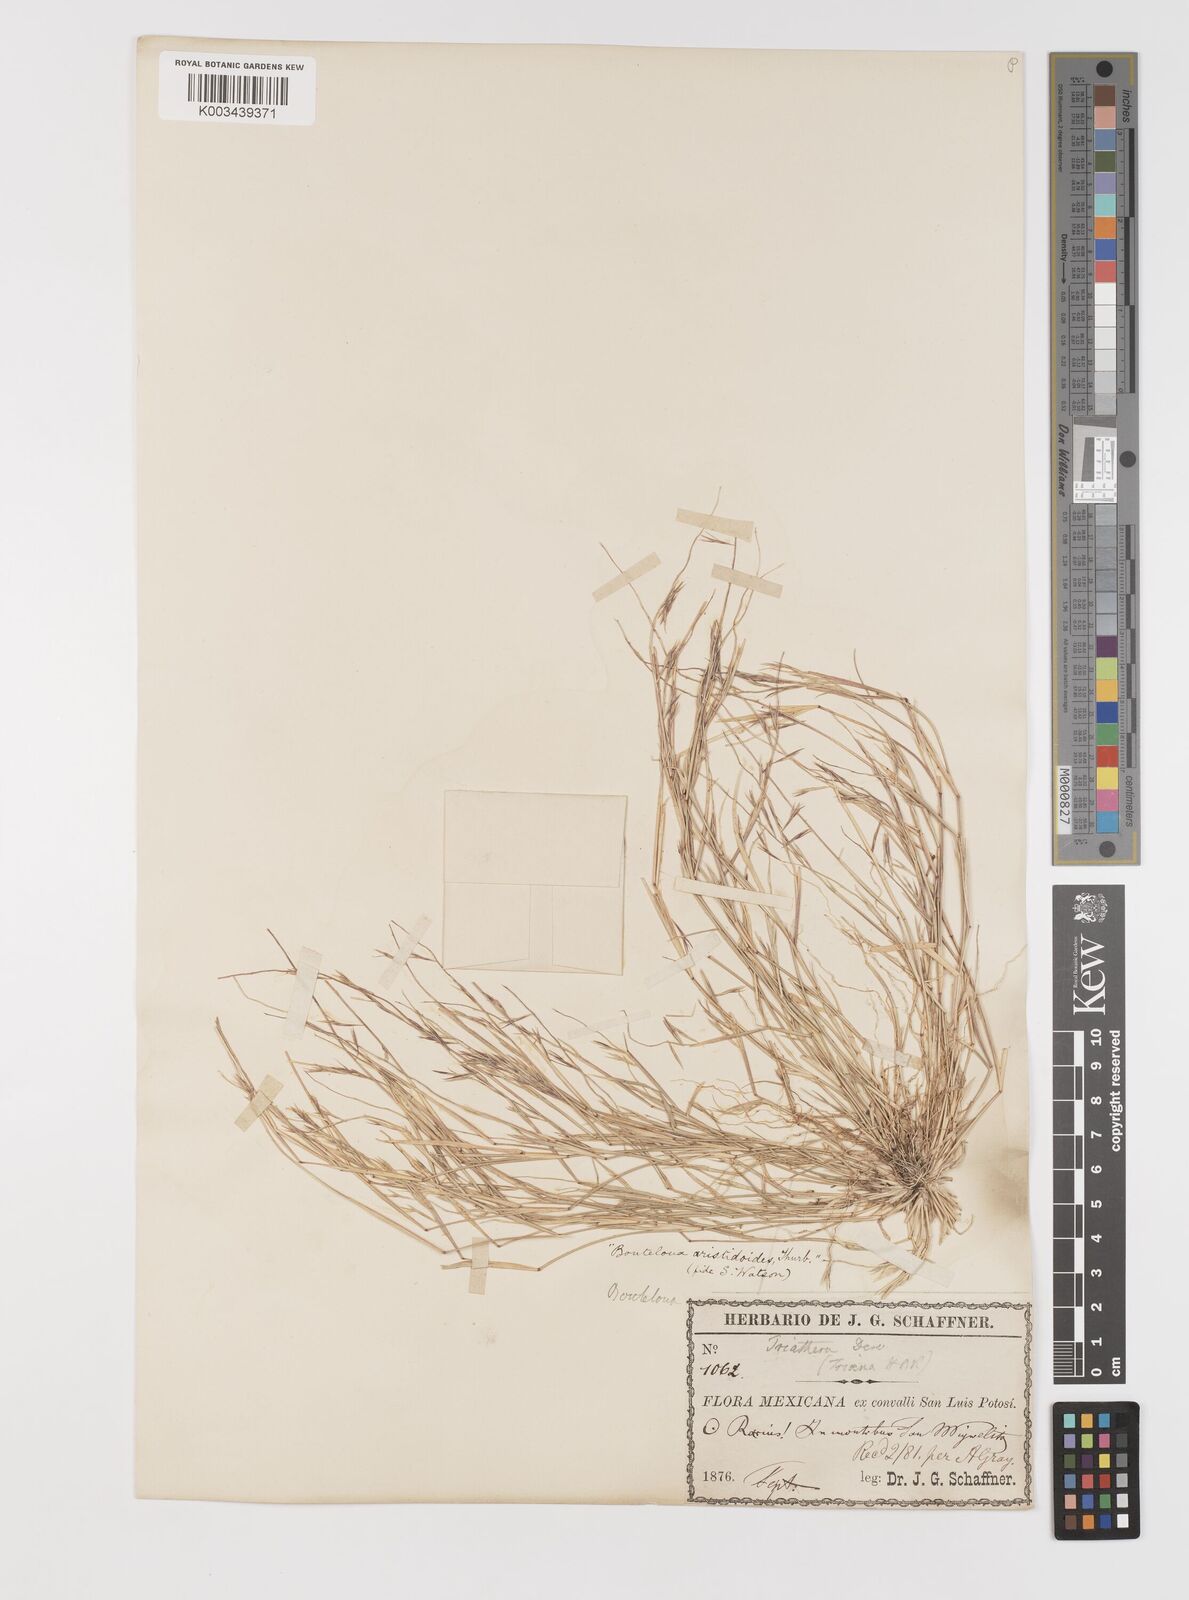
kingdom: Plantae
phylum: Tracheophyta
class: Liliopsida
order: Poales
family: Poaceae
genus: Bouteloua
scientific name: Bouteloua aristidoides
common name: Needle grama
